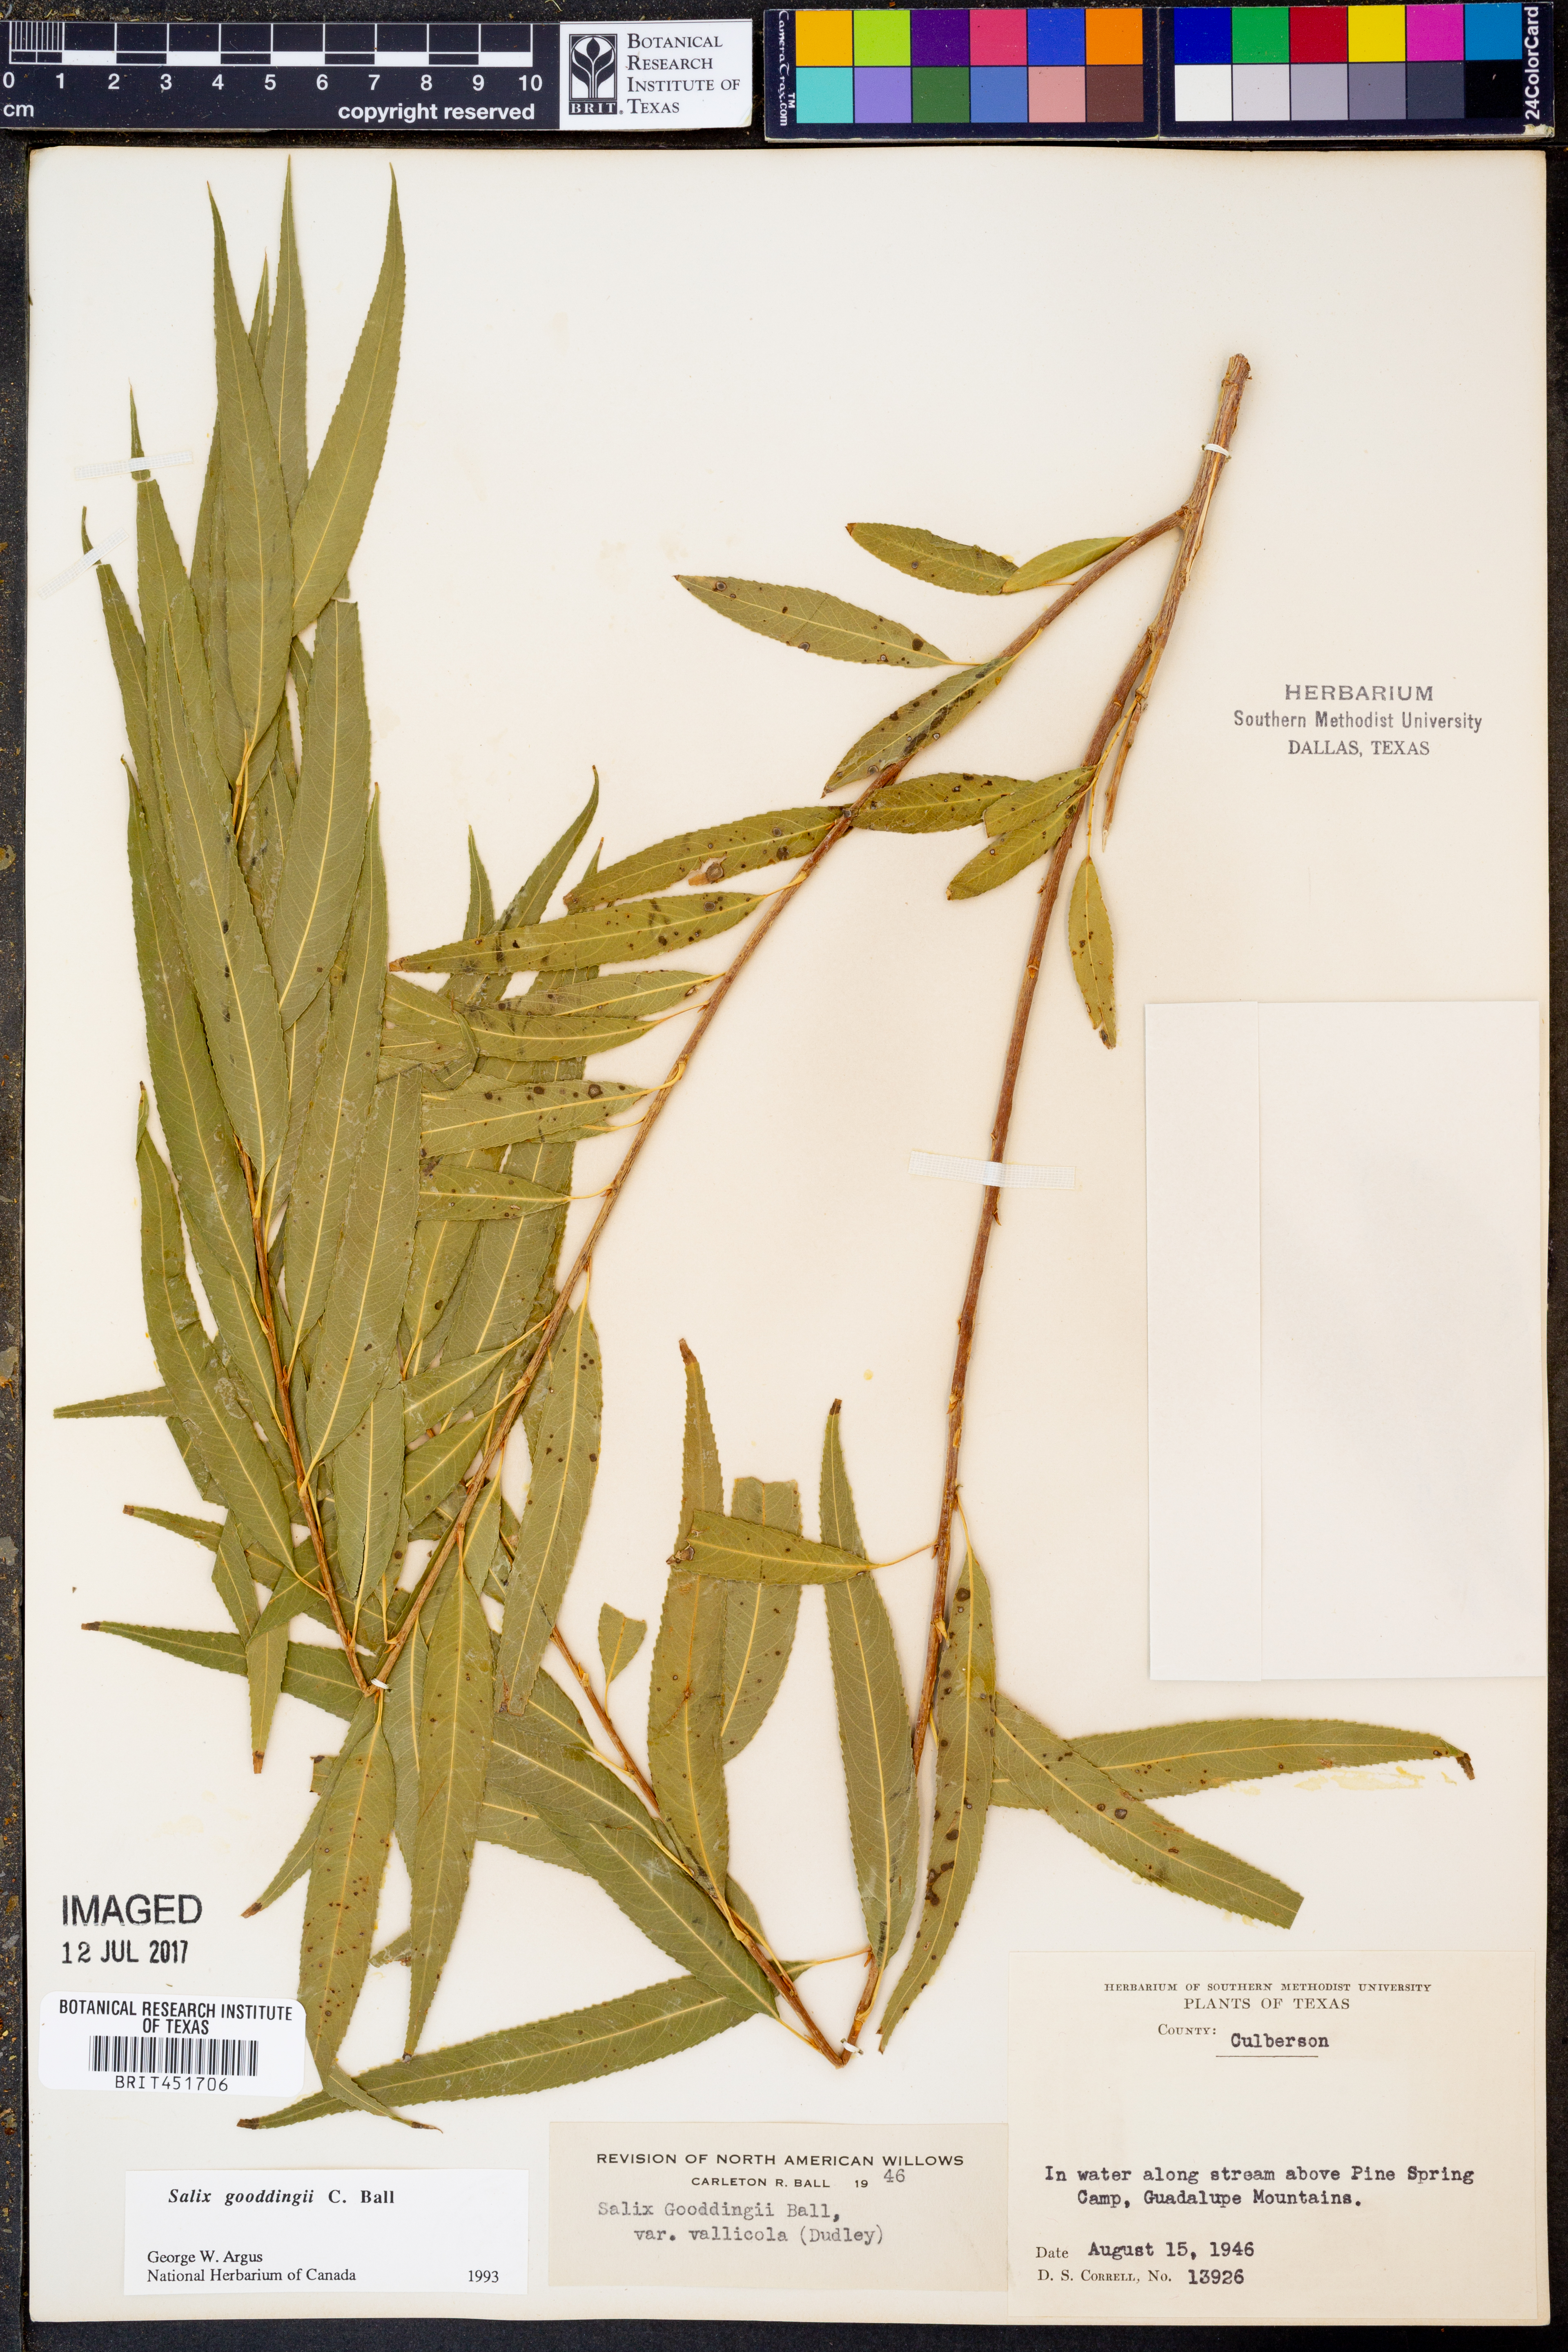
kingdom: Plantae
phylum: Tracheophyta
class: Magnoliopsida
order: Malpighiales
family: Salicaceae
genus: Salix
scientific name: Salix gooddingii
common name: Goodding's willow
